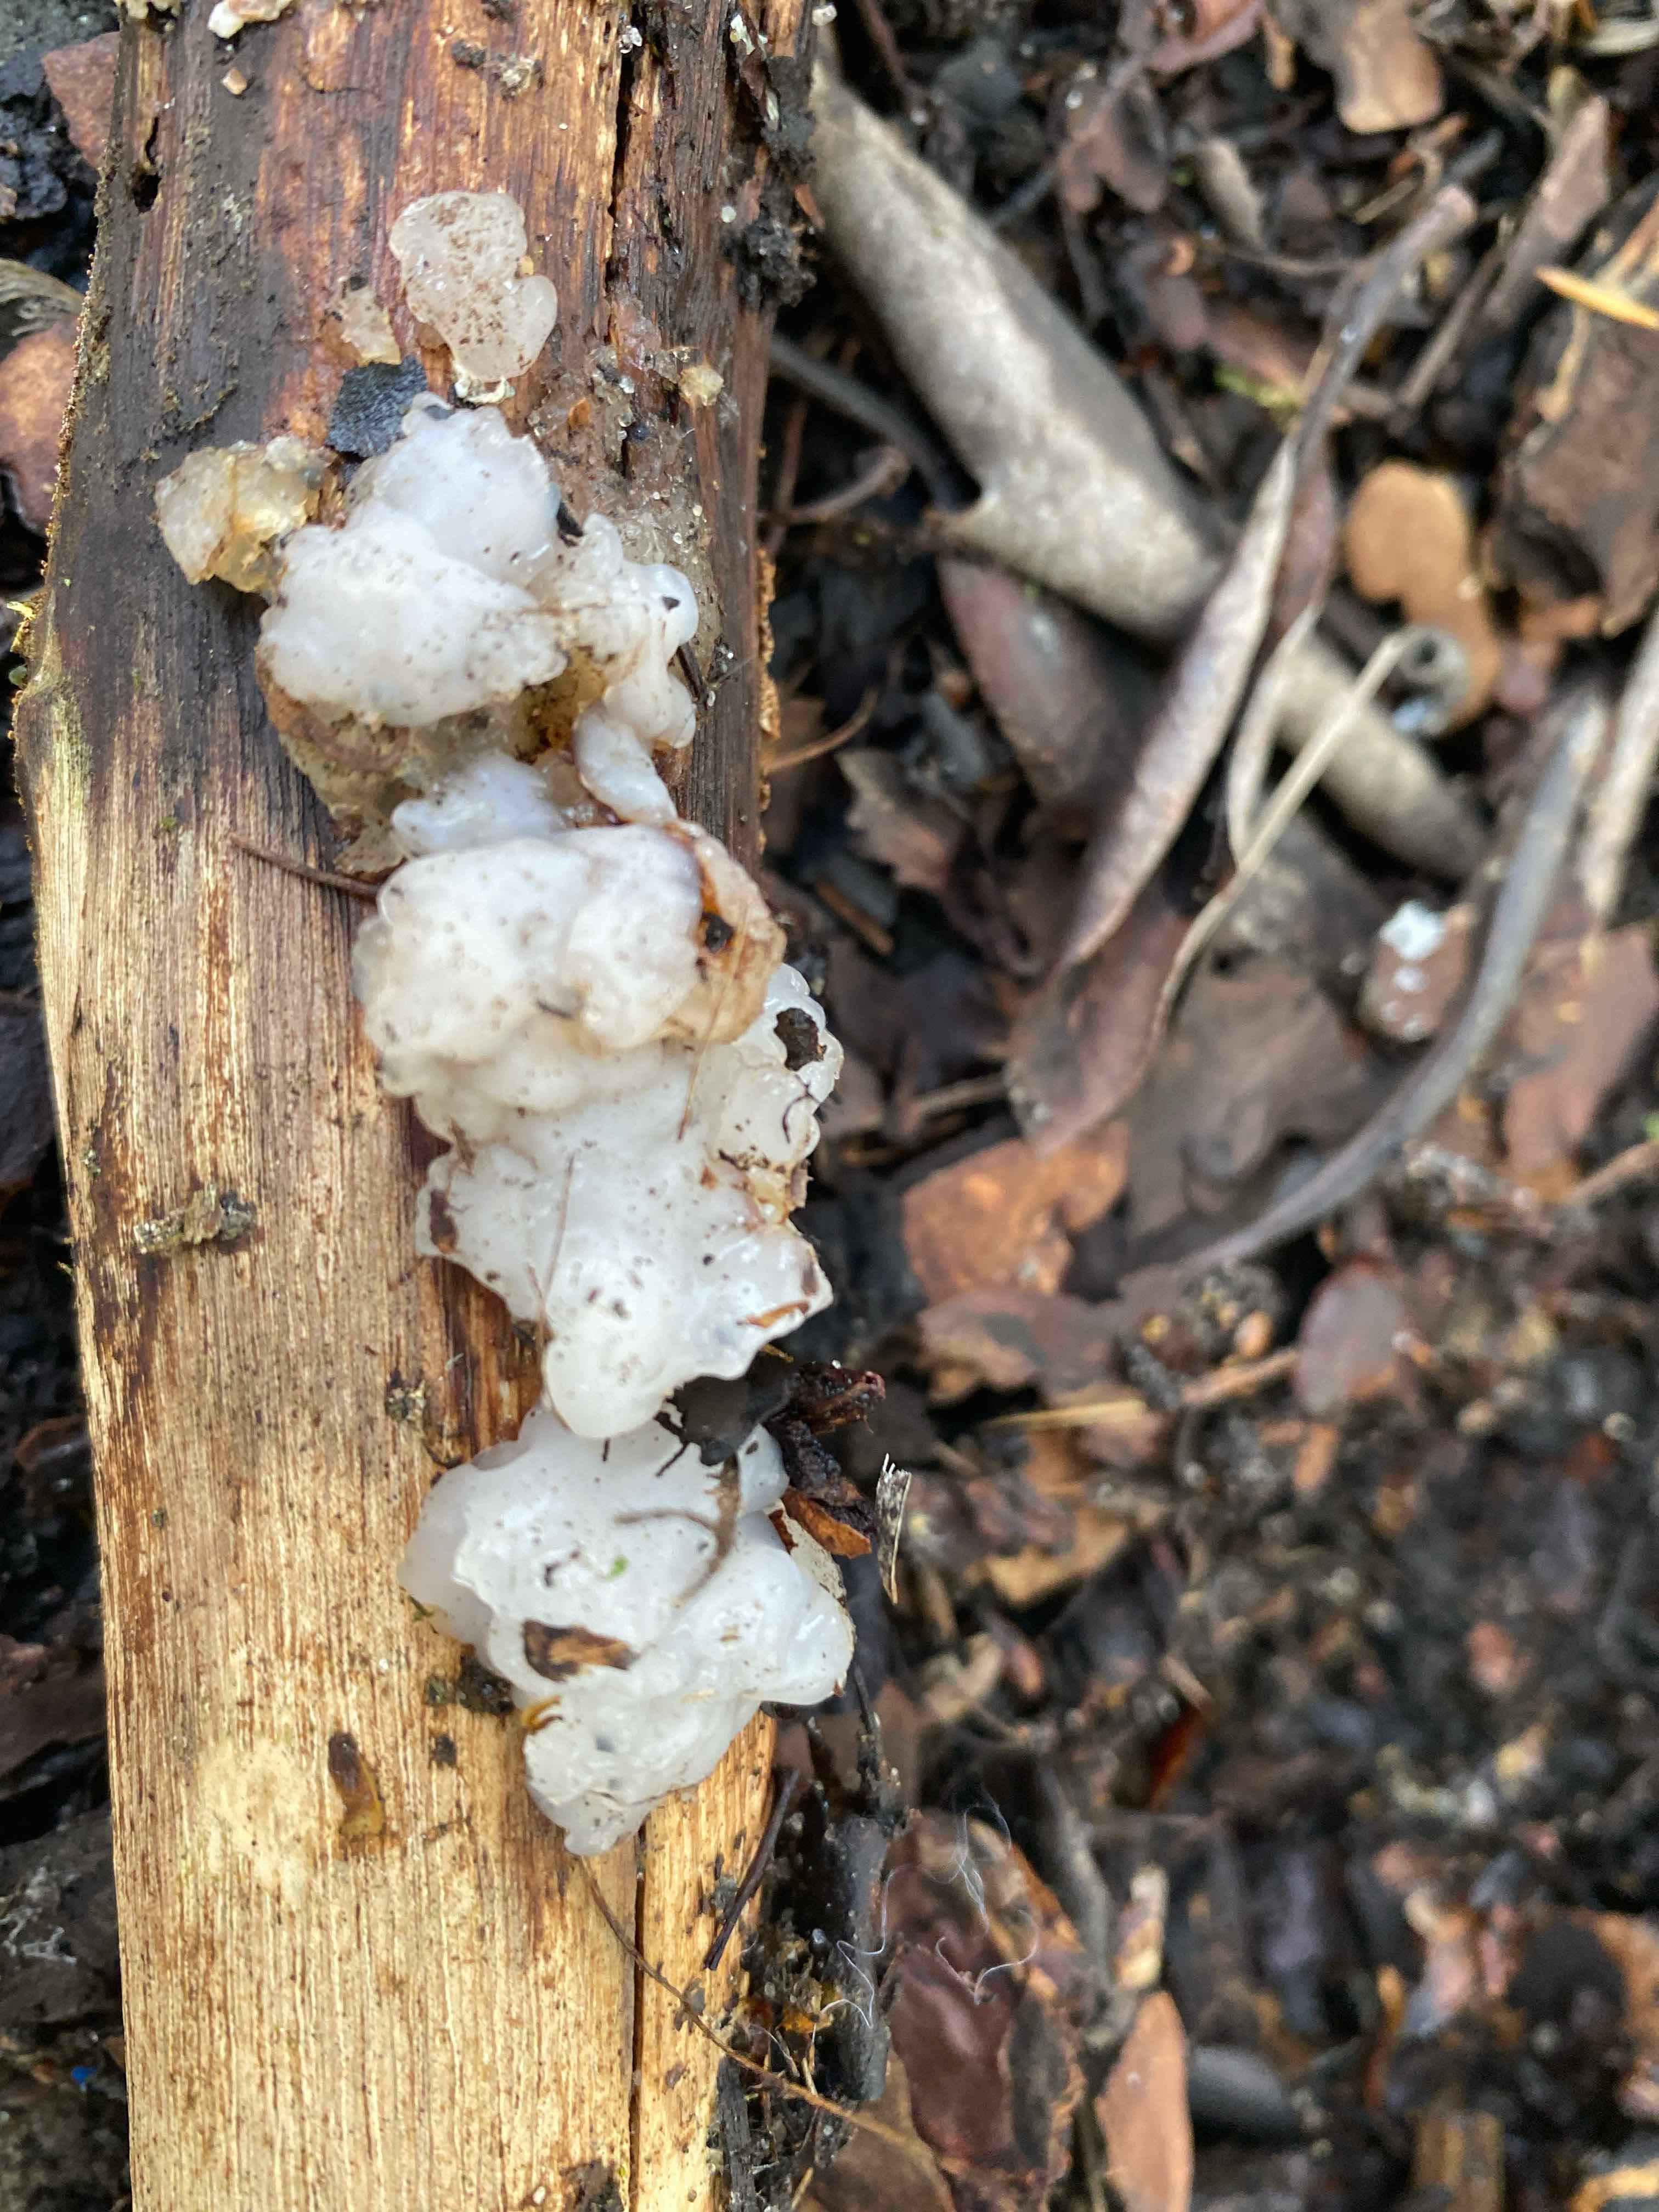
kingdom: Fungi
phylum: Basidiomycota
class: Agaricomycetes
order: Auriculariales
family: Auriculariaceae
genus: Exidia
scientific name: Exidia thuretiana
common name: hvidlig bævretop
